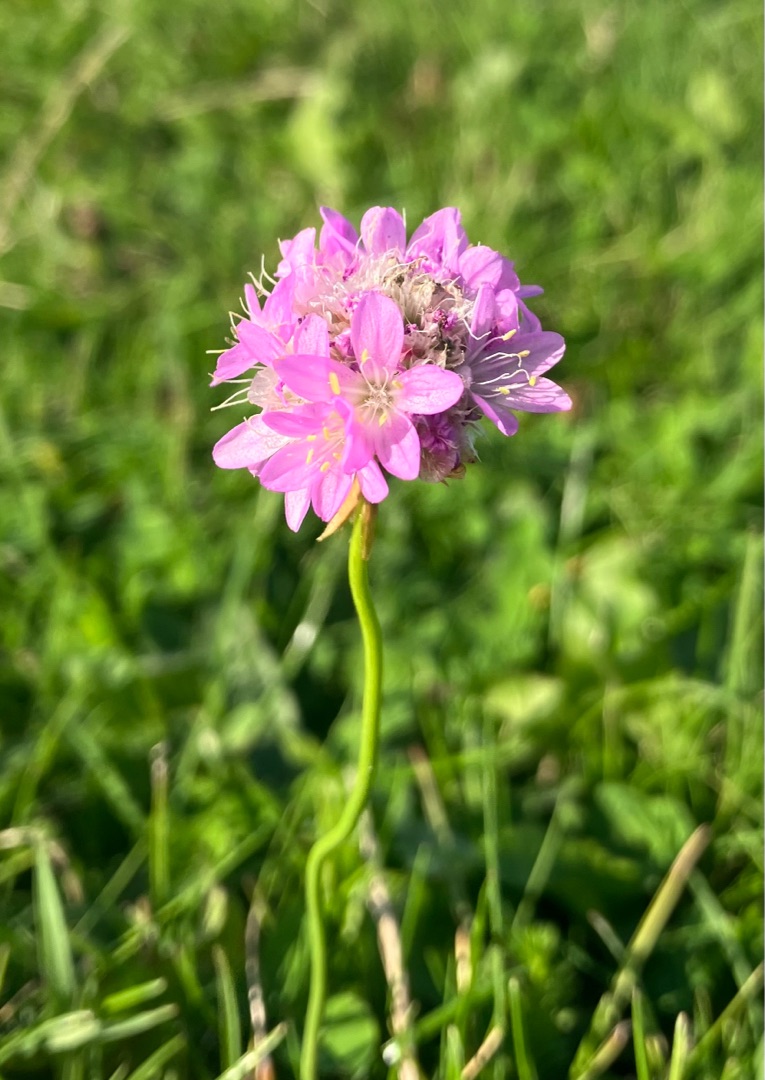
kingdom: Plantae
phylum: Tracheophyta
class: Magnoliopsida
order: Caryophyllales
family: Plumbaginaceae
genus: Armeria
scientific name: Armeria maritima
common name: Engelskgræs
